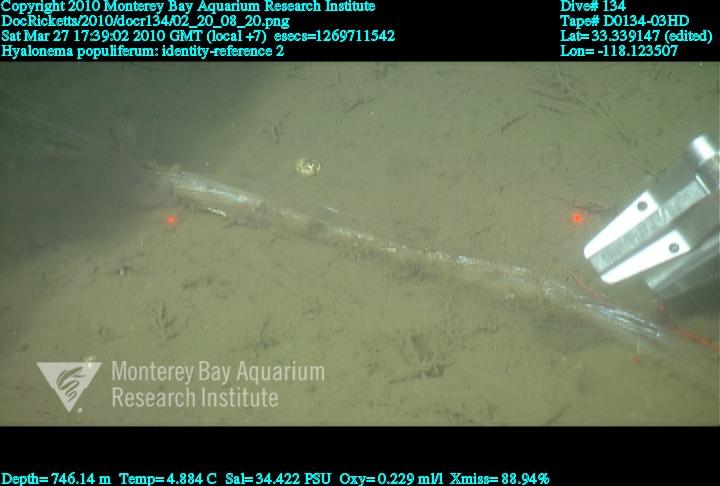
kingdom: Animalia
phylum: Porifera
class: Hexactinellida
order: Amphidiscosida
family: Hyalonematidae
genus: Hyalonema
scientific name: Hyalonema populiferum
